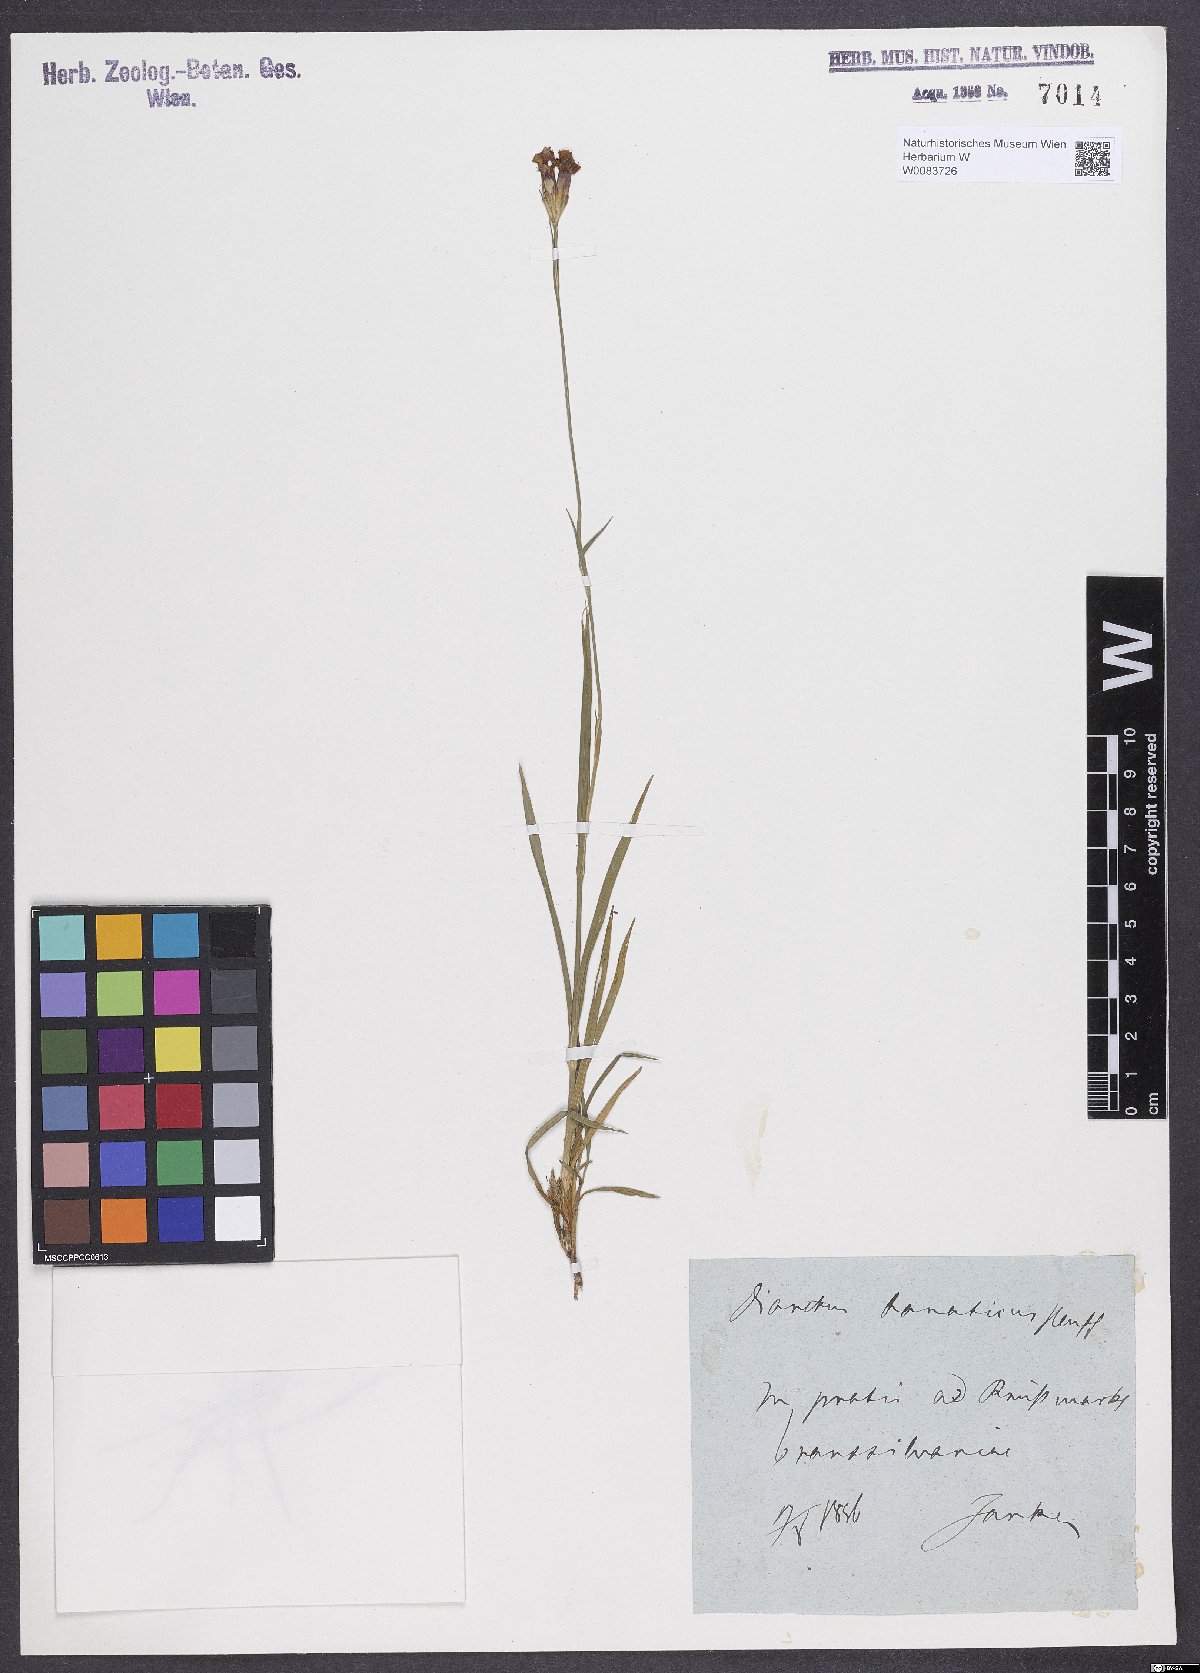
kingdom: Plantae
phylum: Tracheophyta
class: Magnoliopsida
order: Caryophyllales
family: Caryophyllaceae
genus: Dianthus
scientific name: Dianthus giganteus
